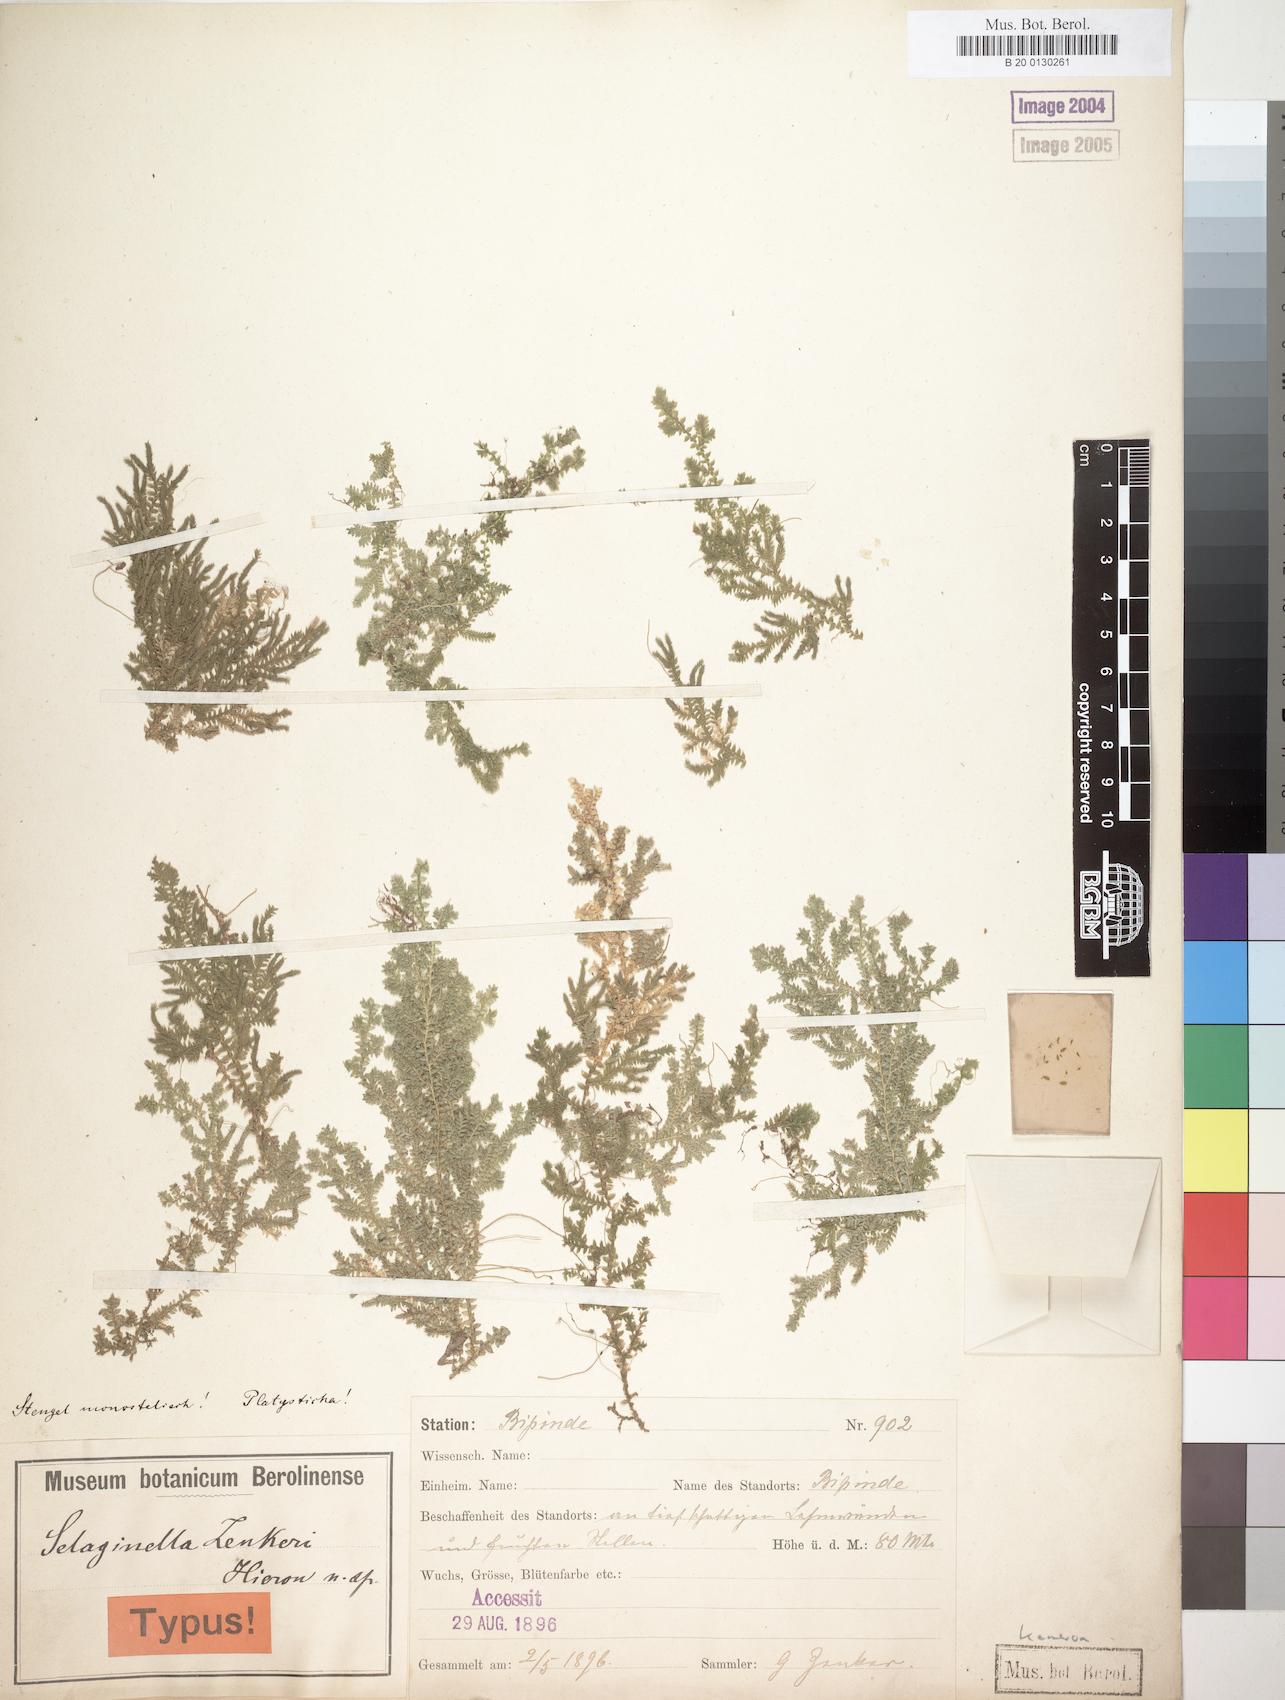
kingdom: Plantae
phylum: Tracheophyta
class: Lycopodiopsida
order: Selaginellales
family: Selaginellaceae
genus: Selaginella
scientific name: Selaginella cathedrifolia
